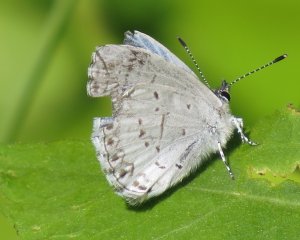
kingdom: Animalia
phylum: Arthropoda
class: Insecta
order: Lepidoptera
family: Lycaenidae
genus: Celastrina
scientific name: Celastrina serotina
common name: Cherry Gall Azure
